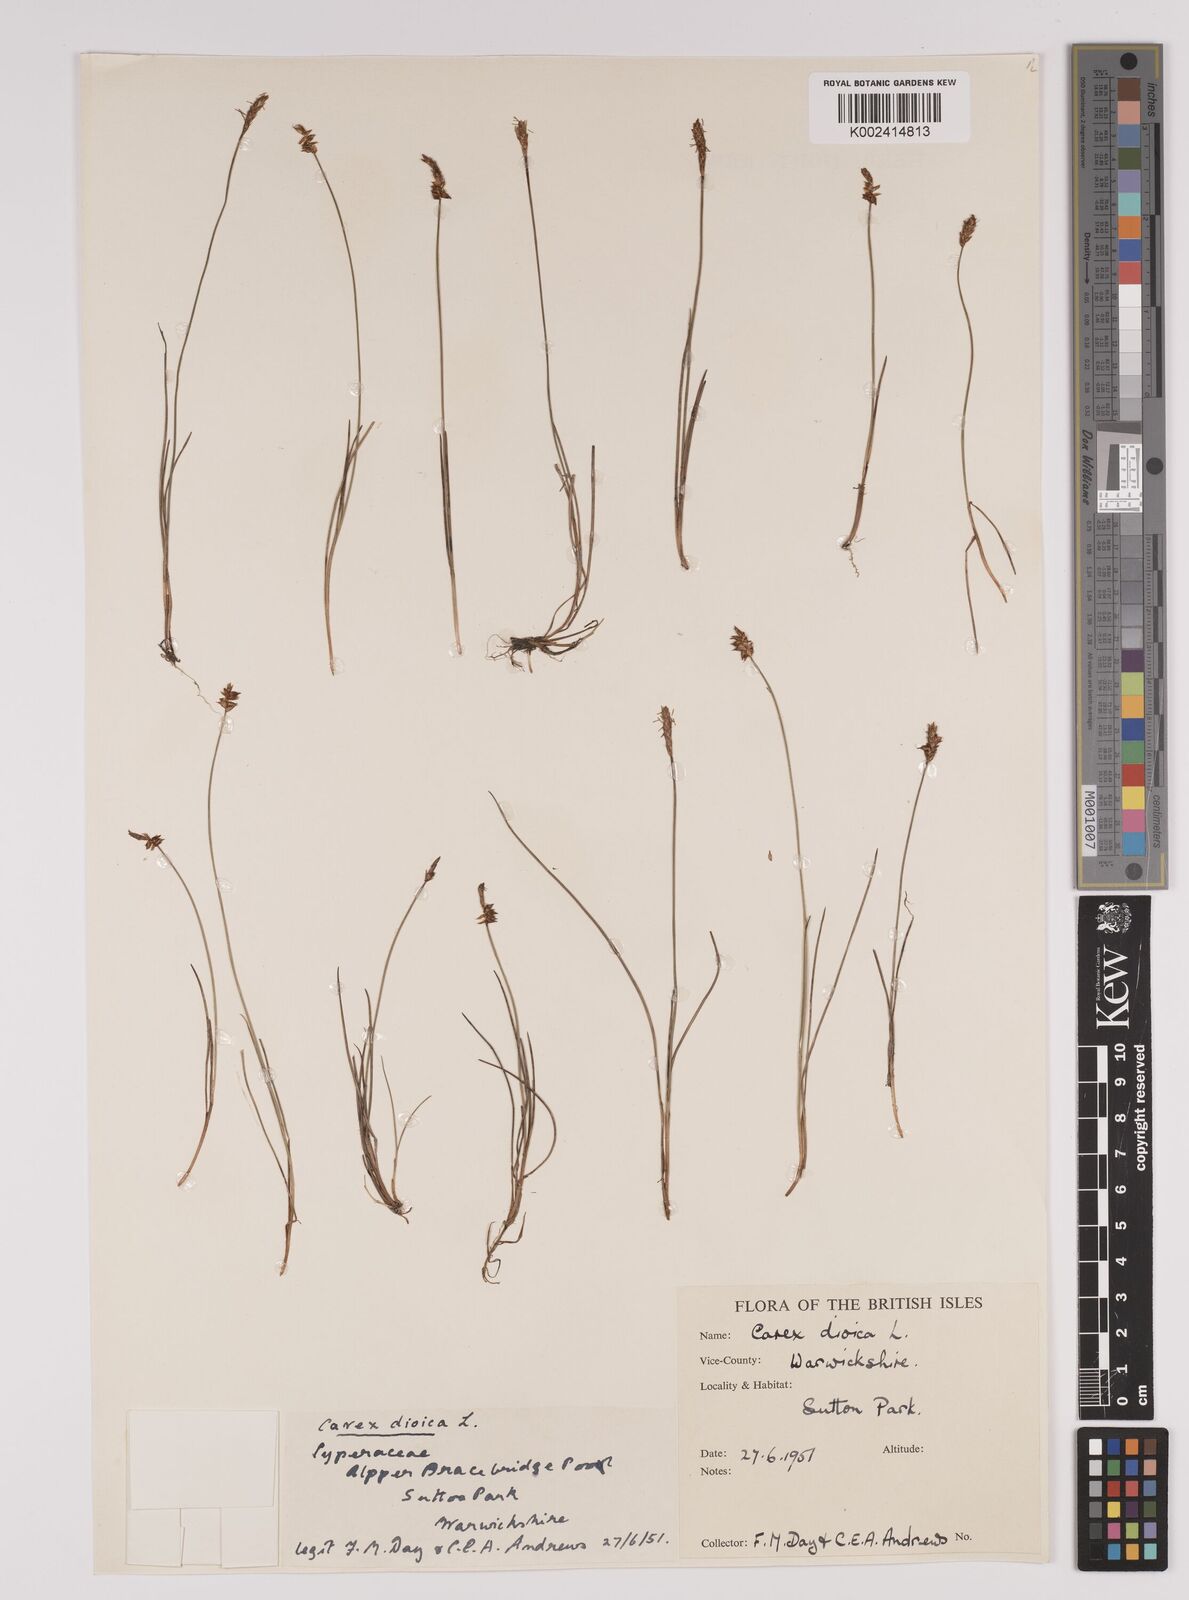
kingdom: Plantae
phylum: Tracheophyta
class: Liliopsida
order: Poales
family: Cyperaceae
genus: Carex
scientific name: Carex dioica
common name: Dioecious sedge
